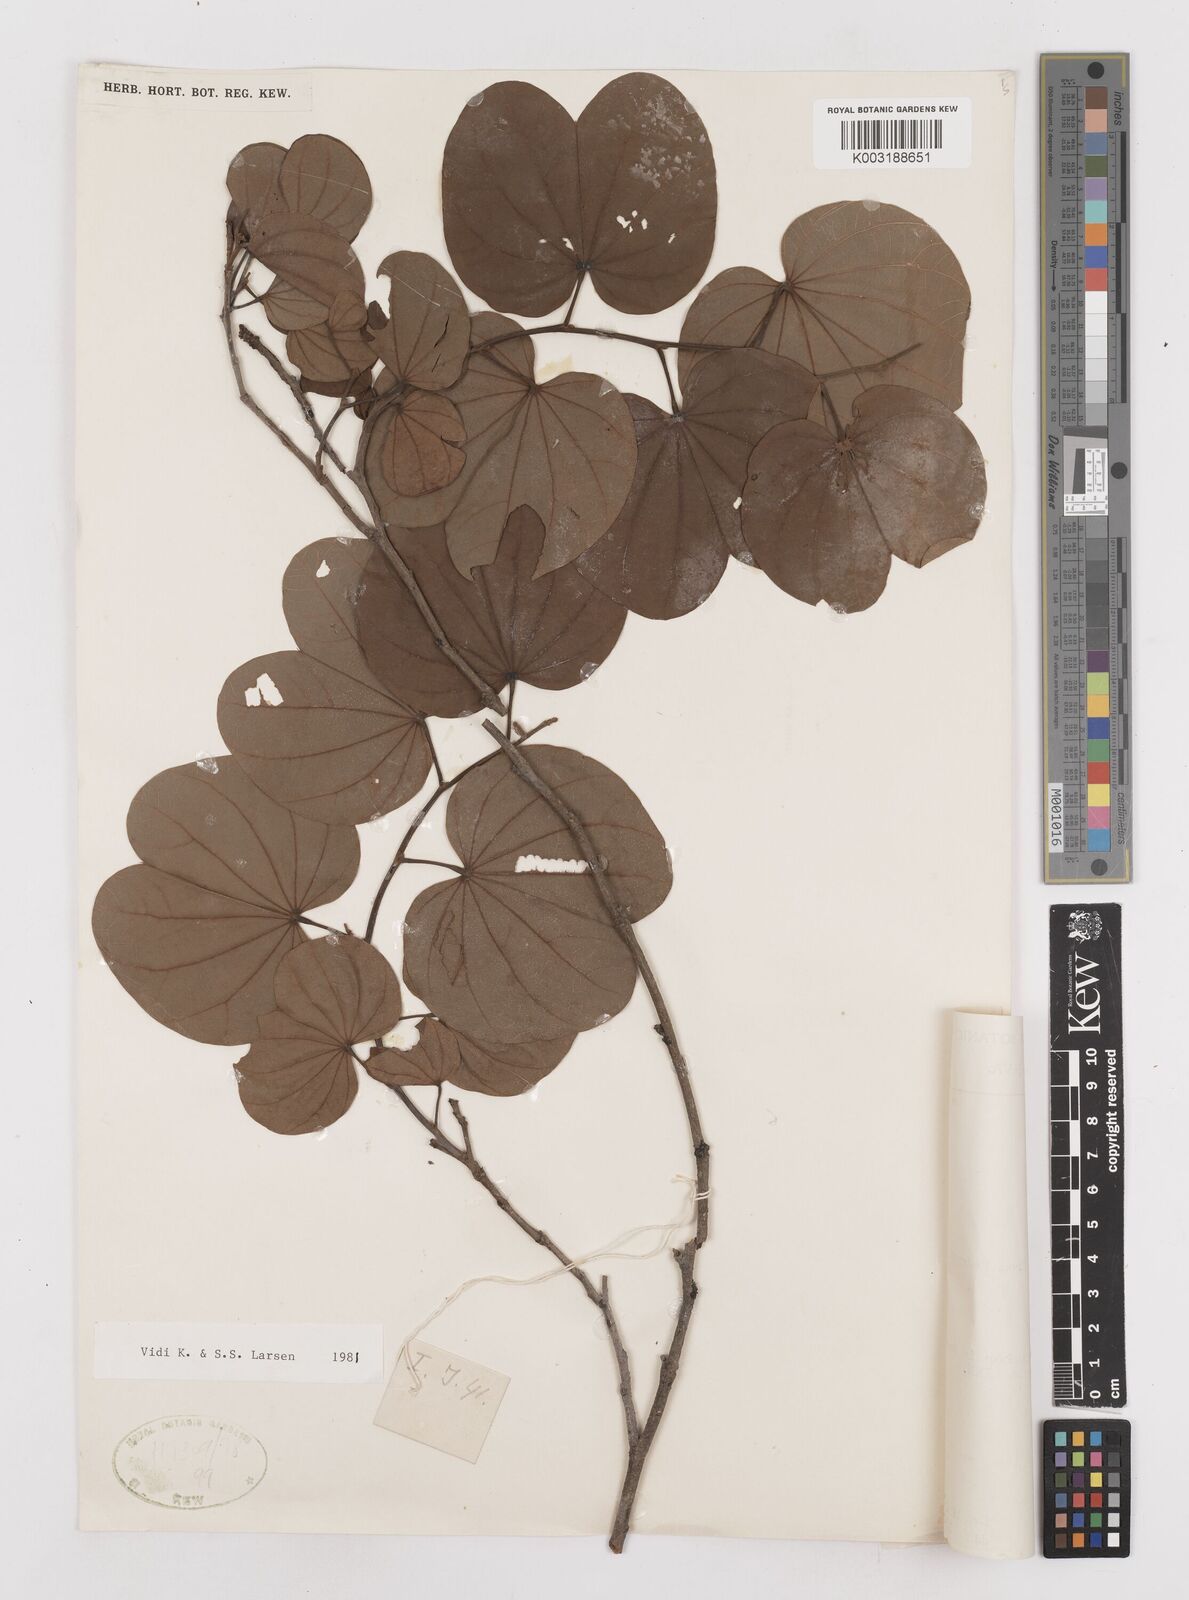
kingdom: Plantae
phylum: Tracheophyta
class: Magnoliopsida
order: Fabales
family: Fabaceae
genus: Bauhinia
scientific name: Bauhinia
